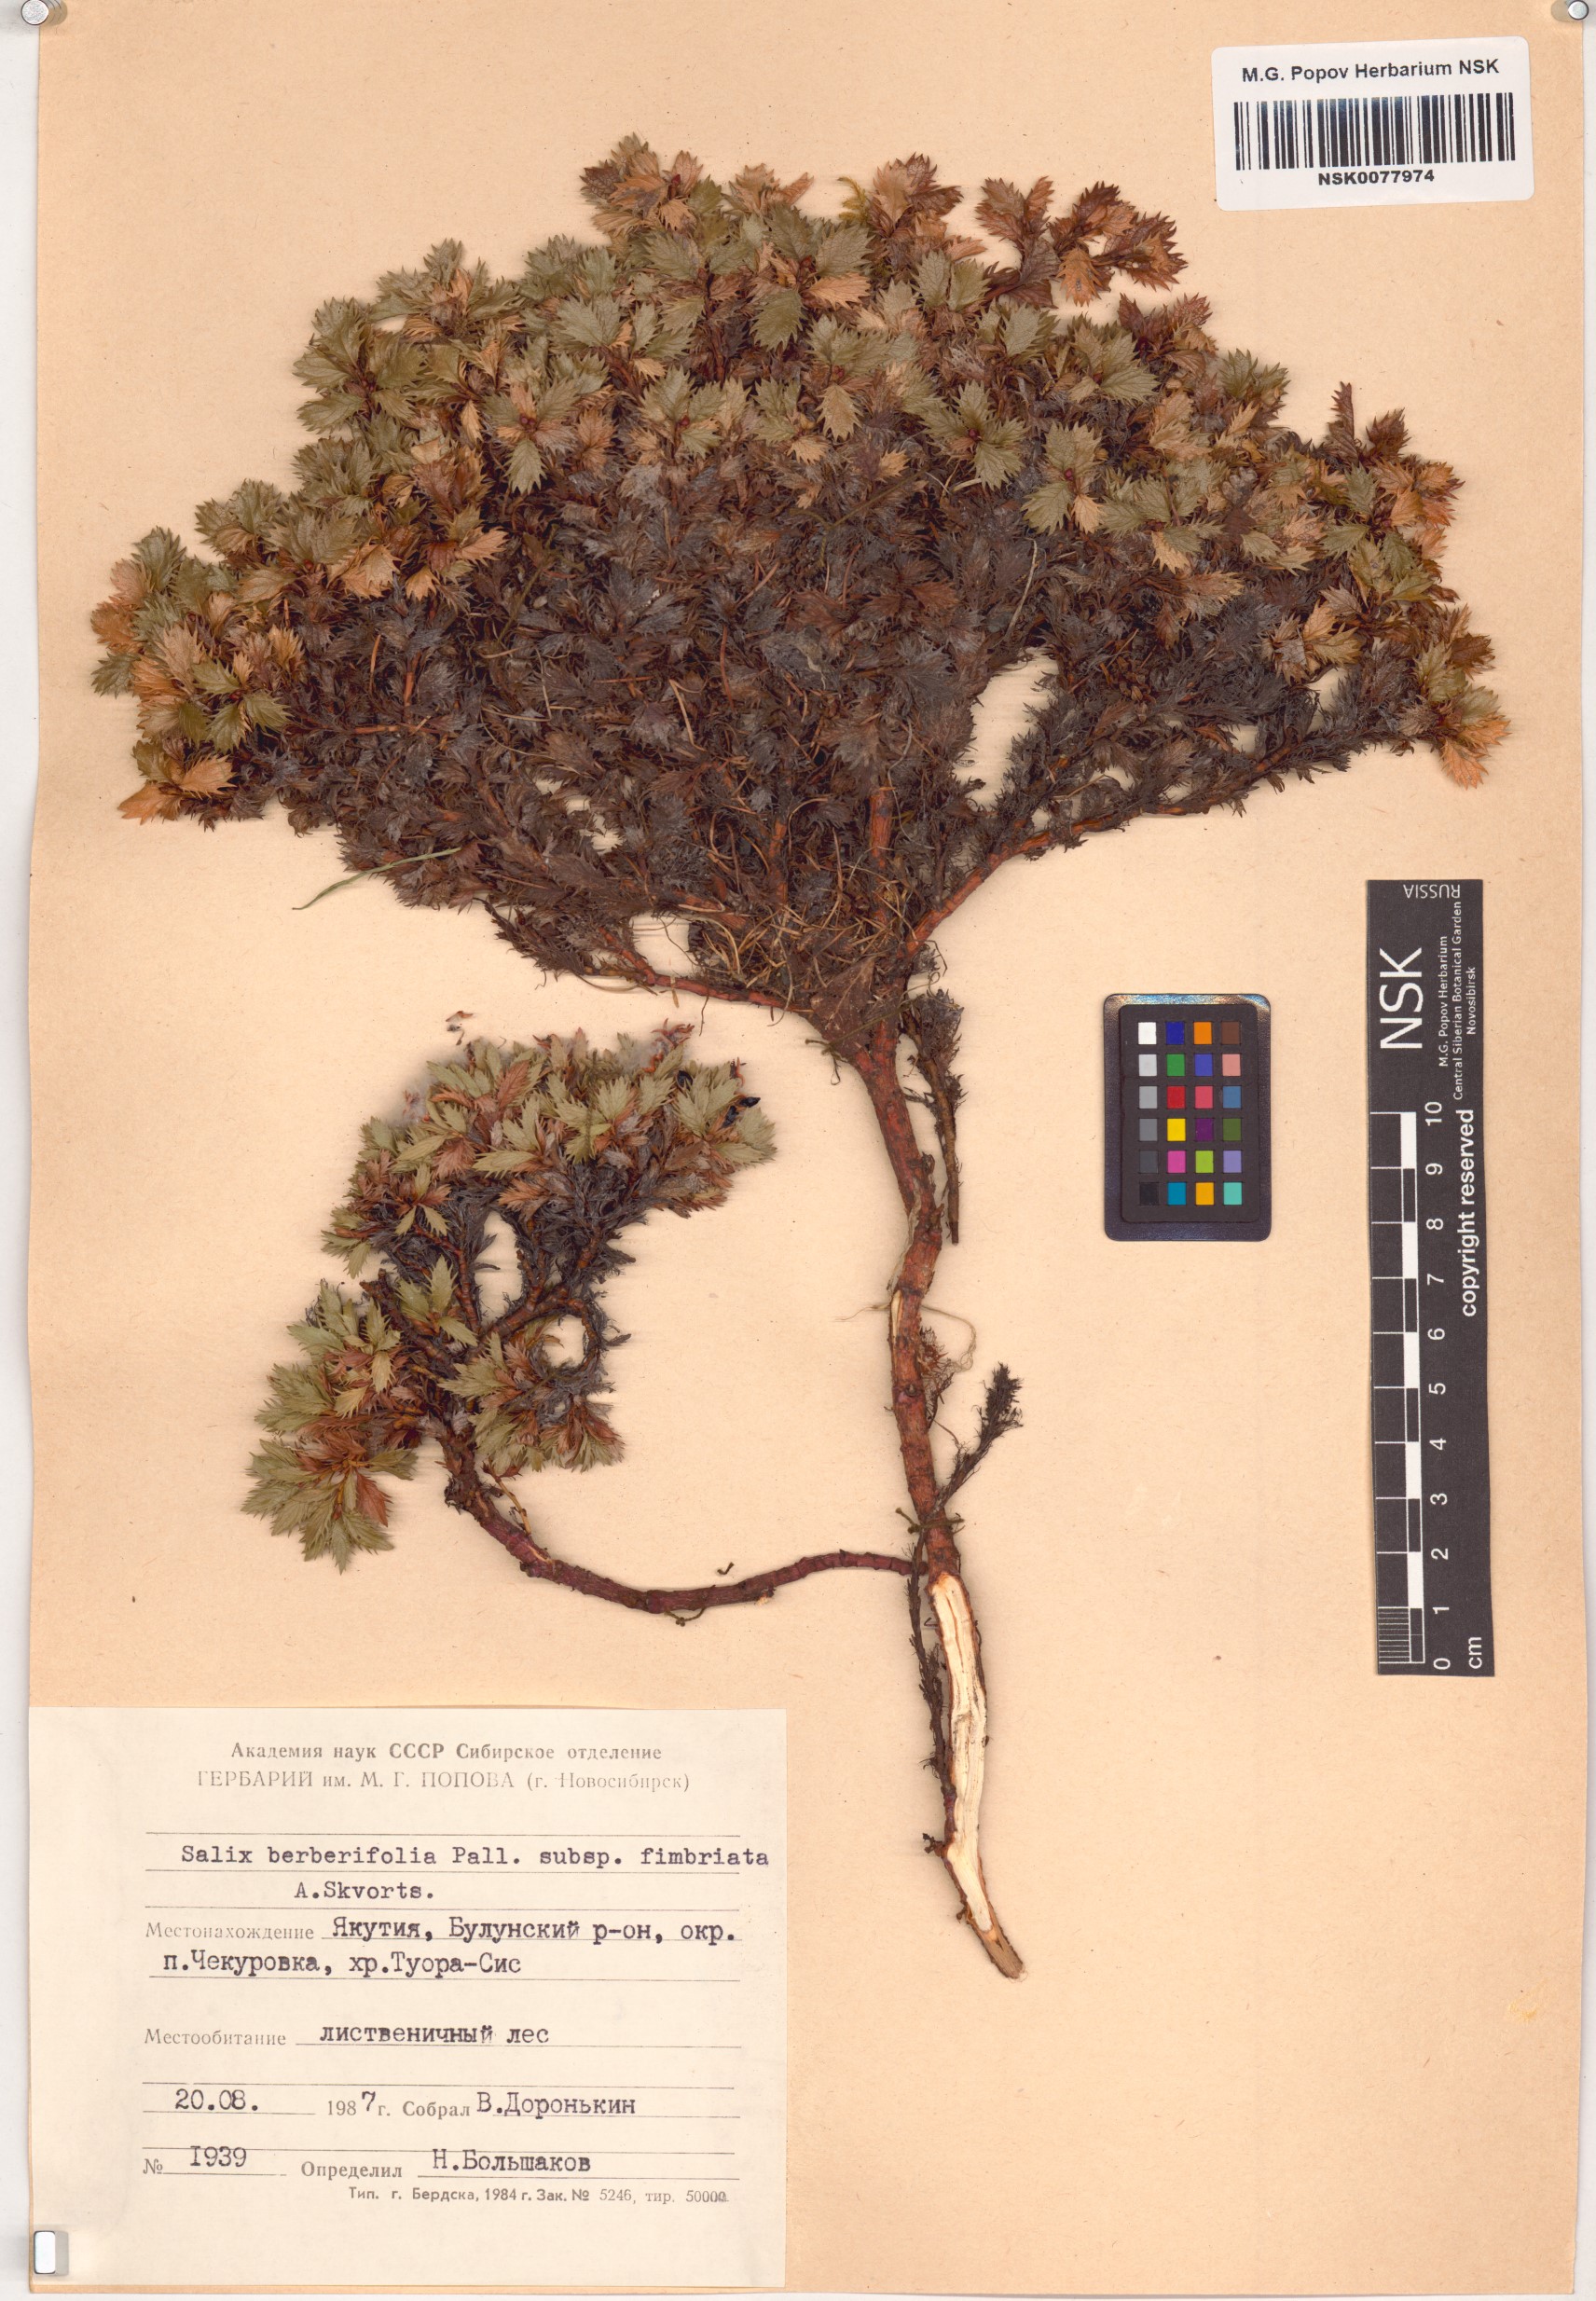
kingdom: Plantae
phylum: Tracheophyta
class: Magnoliopsida
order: Malpighiales
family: Salicaceae
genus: Salix
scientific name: Salix berberifolia
